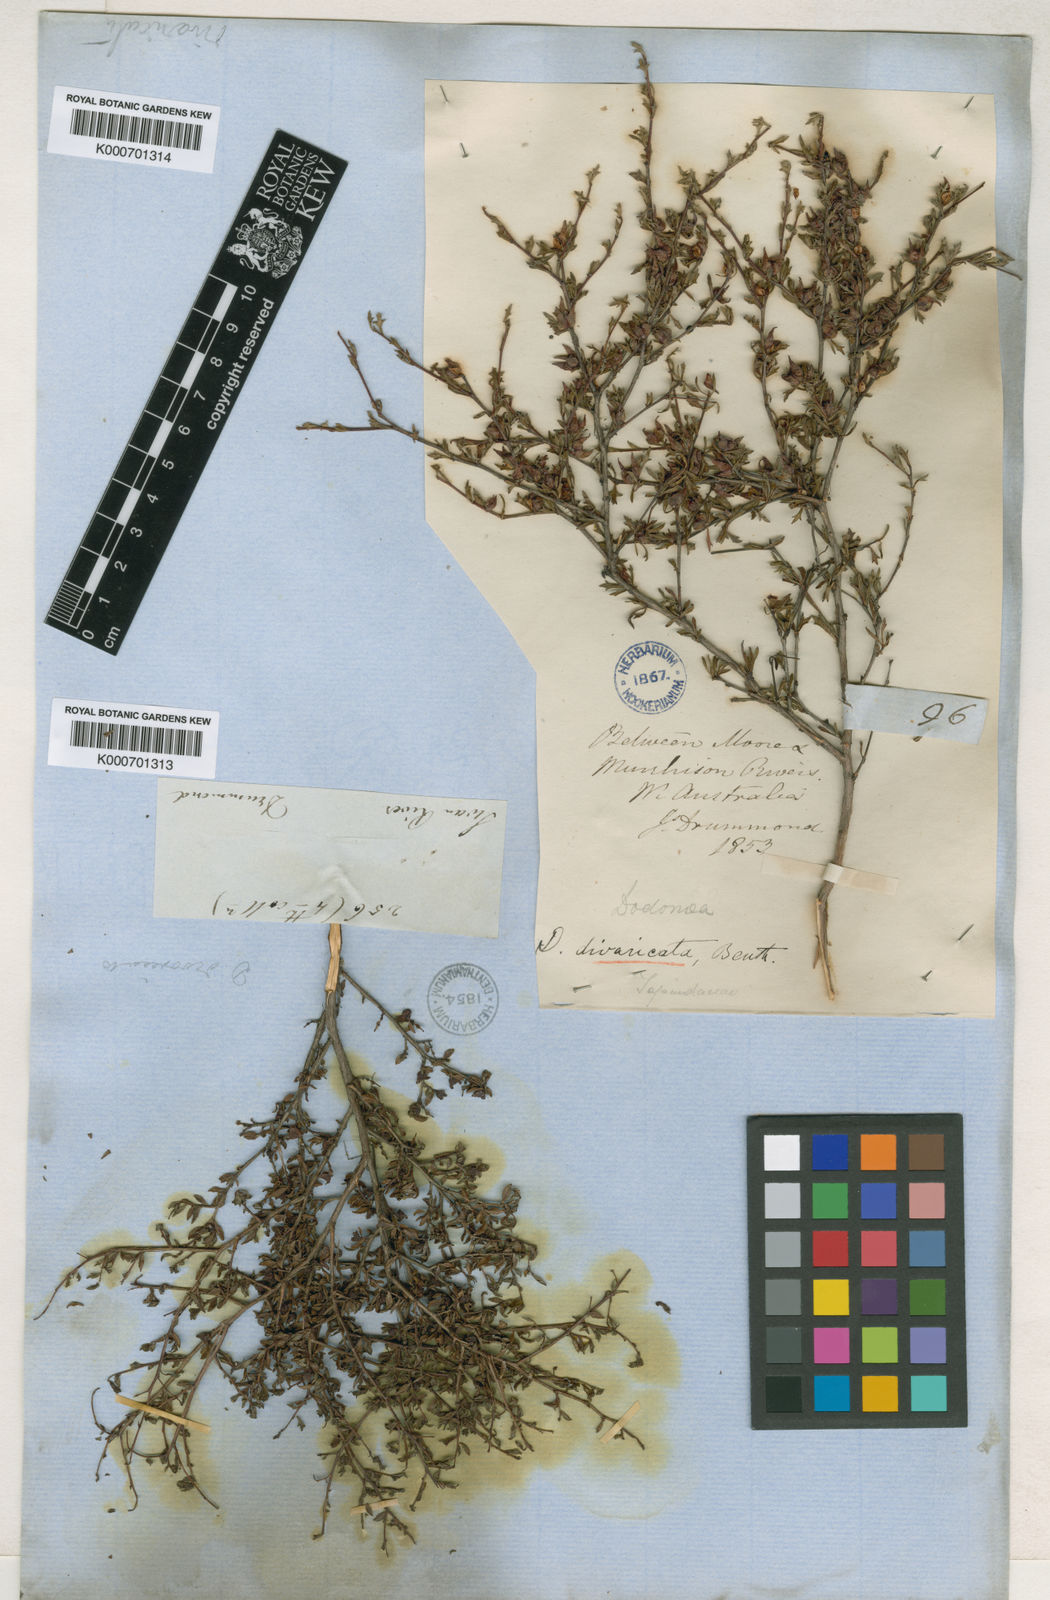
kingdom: Plantae
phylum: Tracheophyta
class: Magnoliopsida
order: Sapindales
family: Sapindaceae
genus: Dodonaea
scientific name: Dodonaea divaricata
